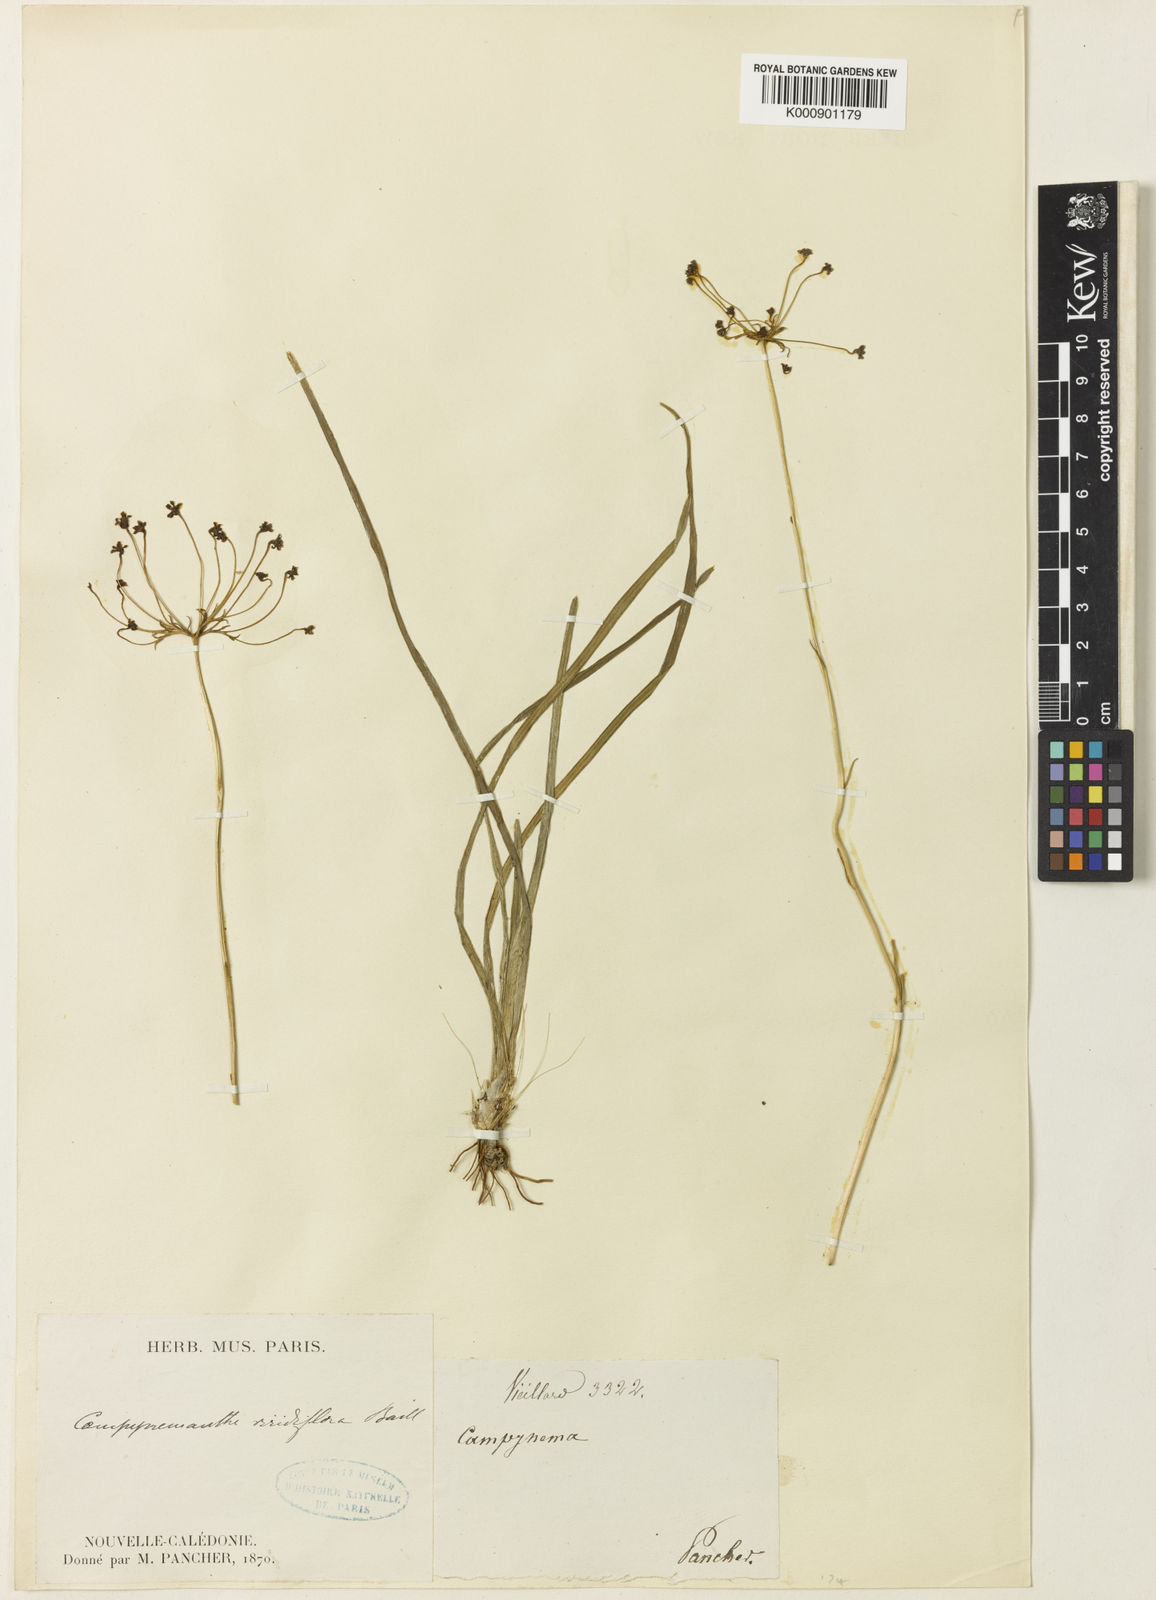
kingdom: Plantae
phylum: Tracheophyta
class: Liliopsida
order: Liliales
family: Campynemataceae
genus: Campynema
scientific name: Campynema
